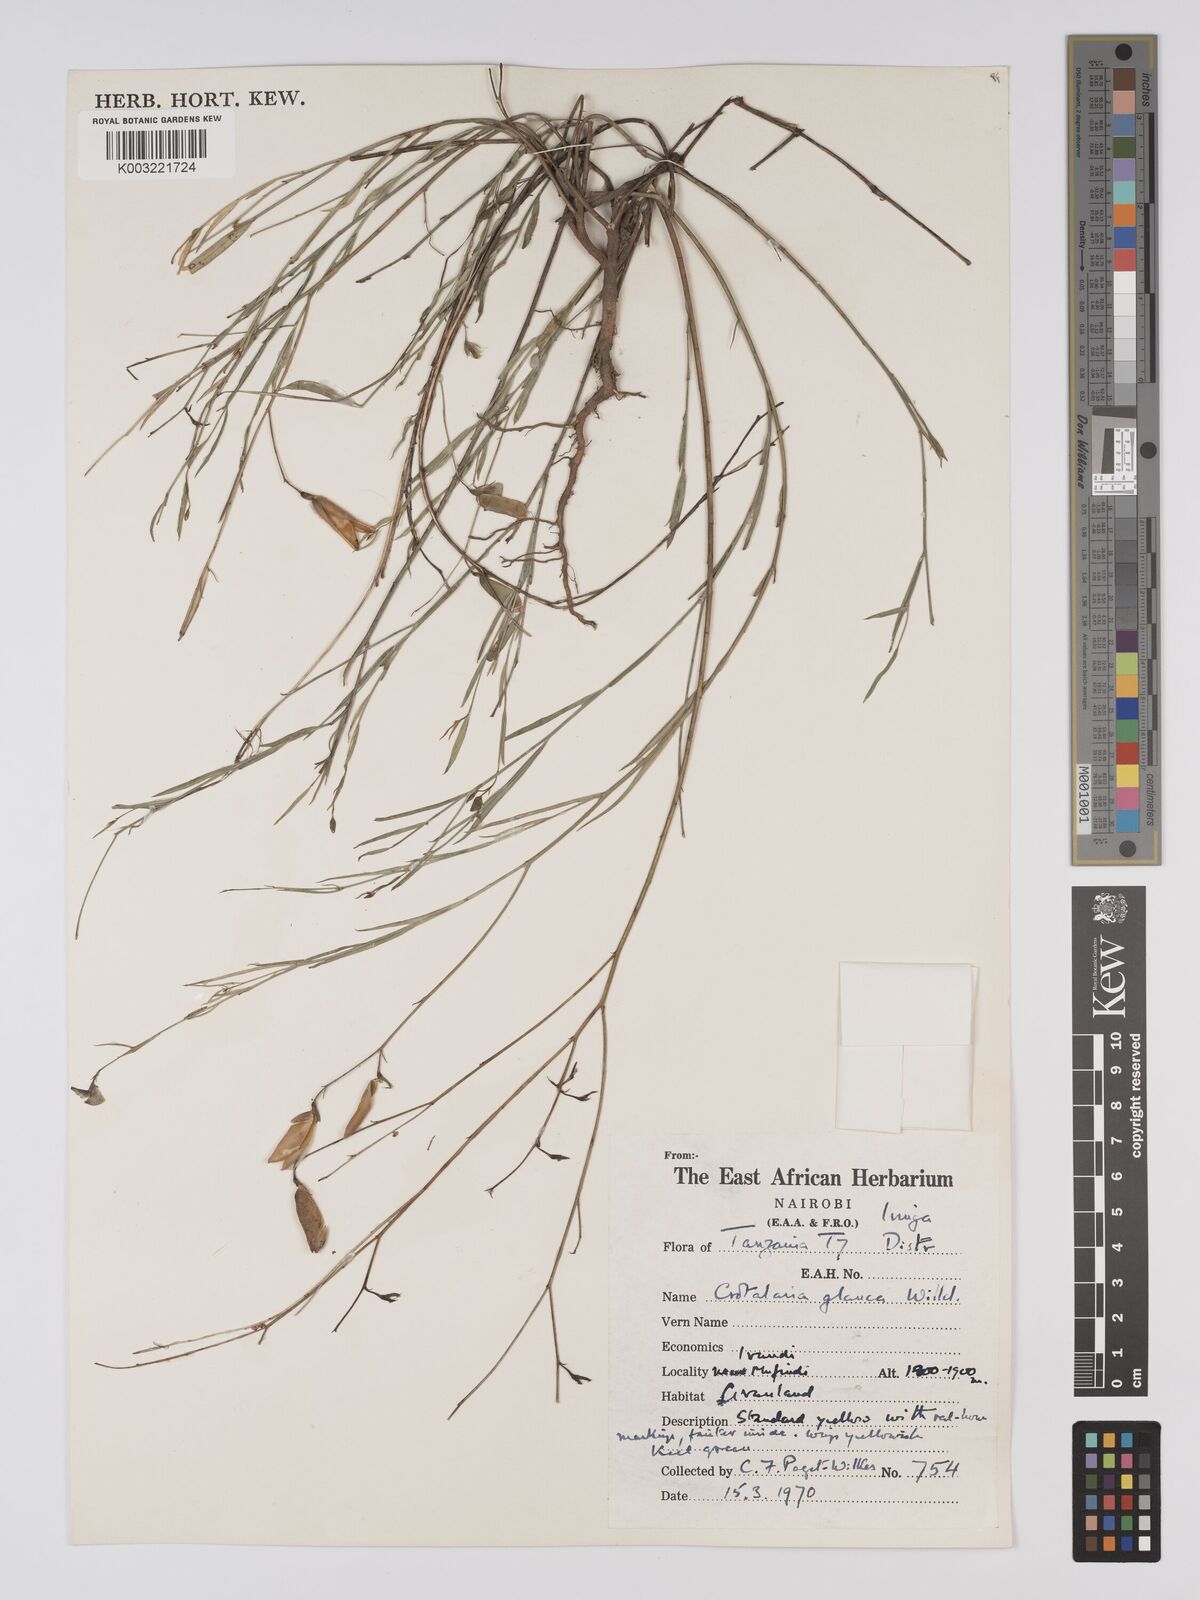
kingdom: Plantae
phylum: Tracheophyta
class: Magnoliopsida
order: Fabales
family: Fabaceae
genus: Crotalaria
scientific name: Crotalaria glauca
